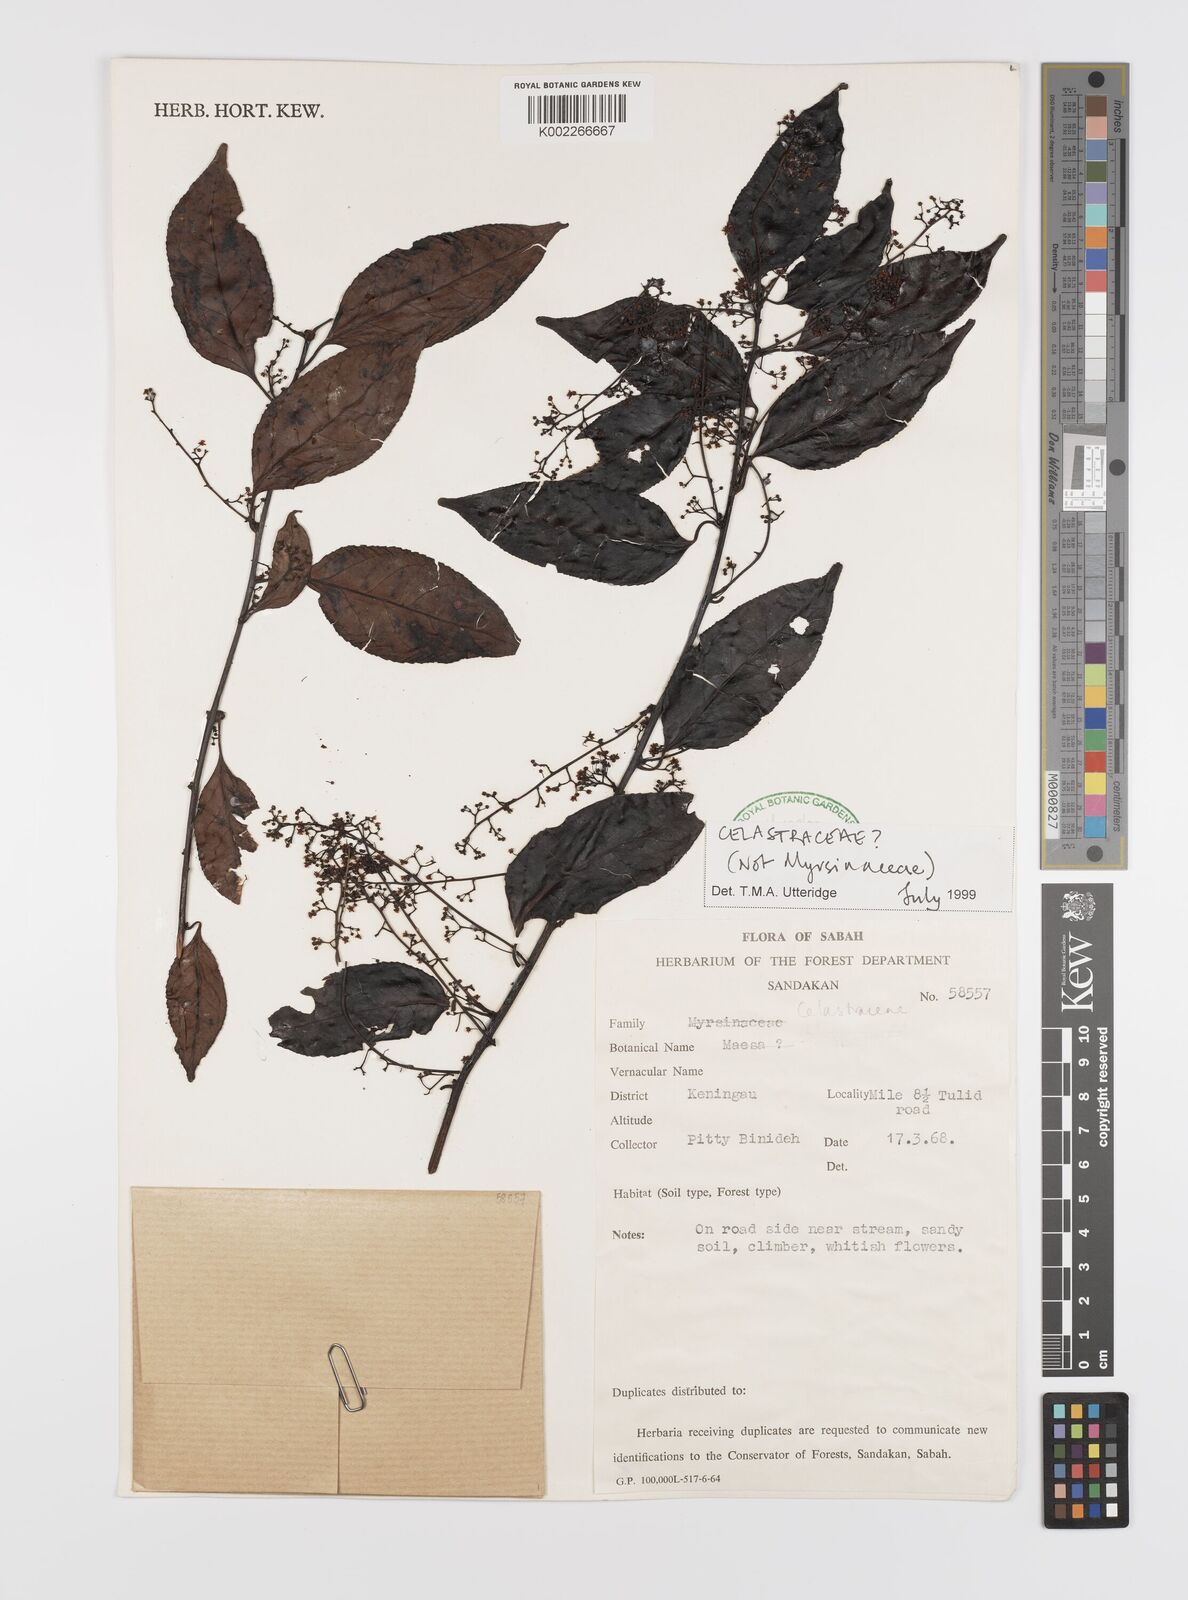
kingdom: Plantae
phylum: Tracheophyta
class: Magnoliopsida
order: Celastrales
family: Celastraceae
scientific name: Celastraceae
